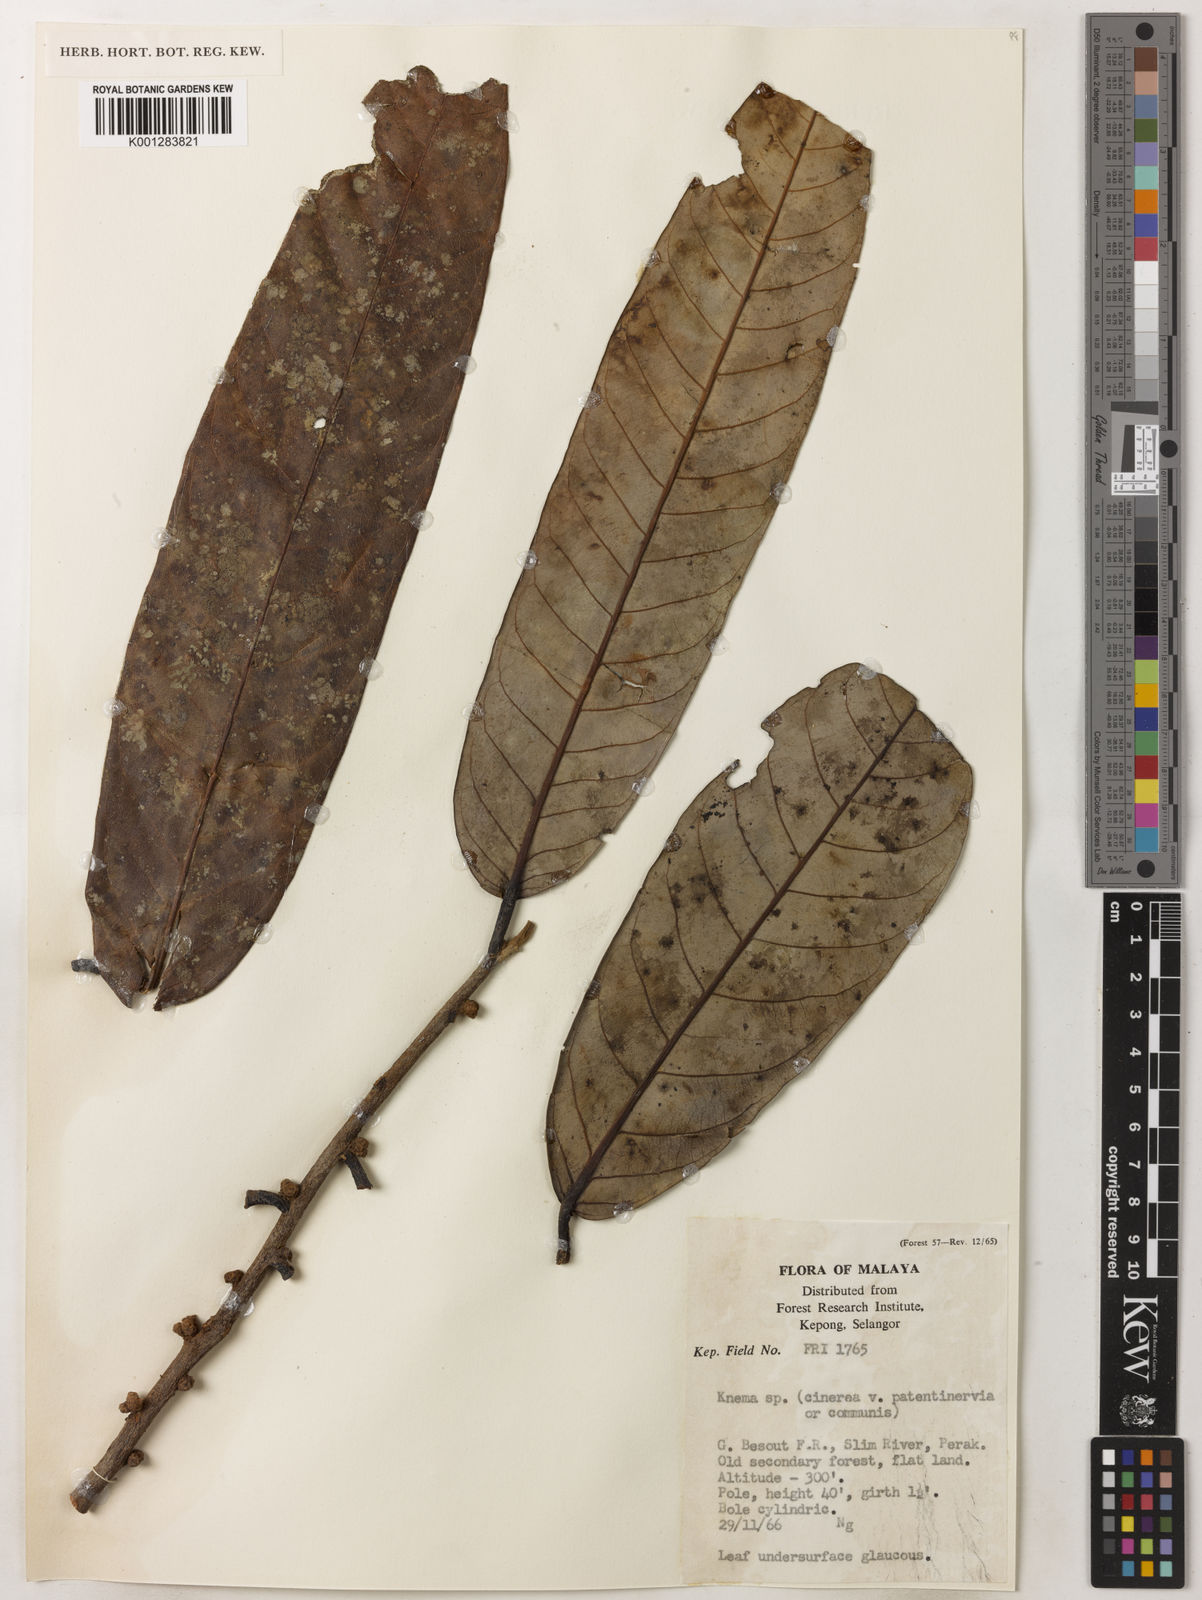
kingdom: Plantae
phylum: Tracheophyta
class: Magnoliopsida
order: Magnoliales
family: Myristicaceae
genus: Knema
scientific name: Knema communis
